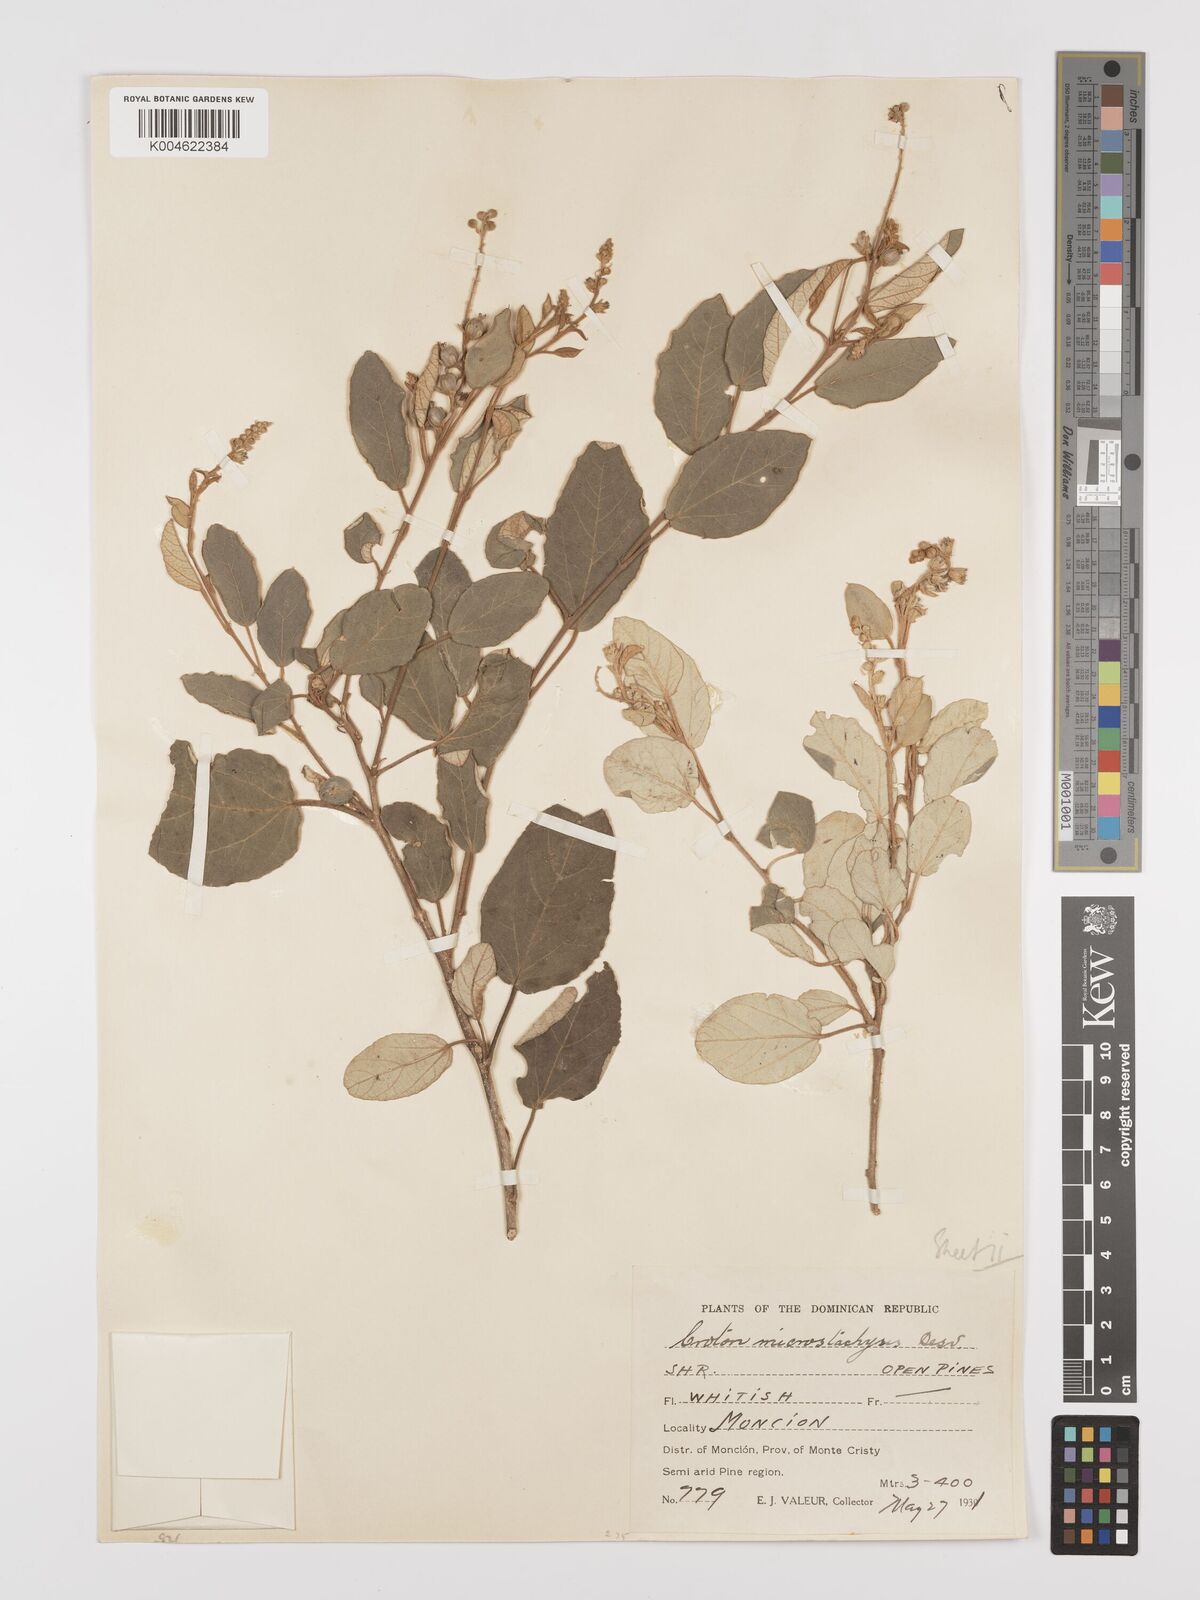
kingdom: Plantae
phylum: Tracheophyta
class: Magnoliopsida
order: Malpighiales
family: Euphorbiaceae
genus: Croton
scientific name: Croton sidifolius
